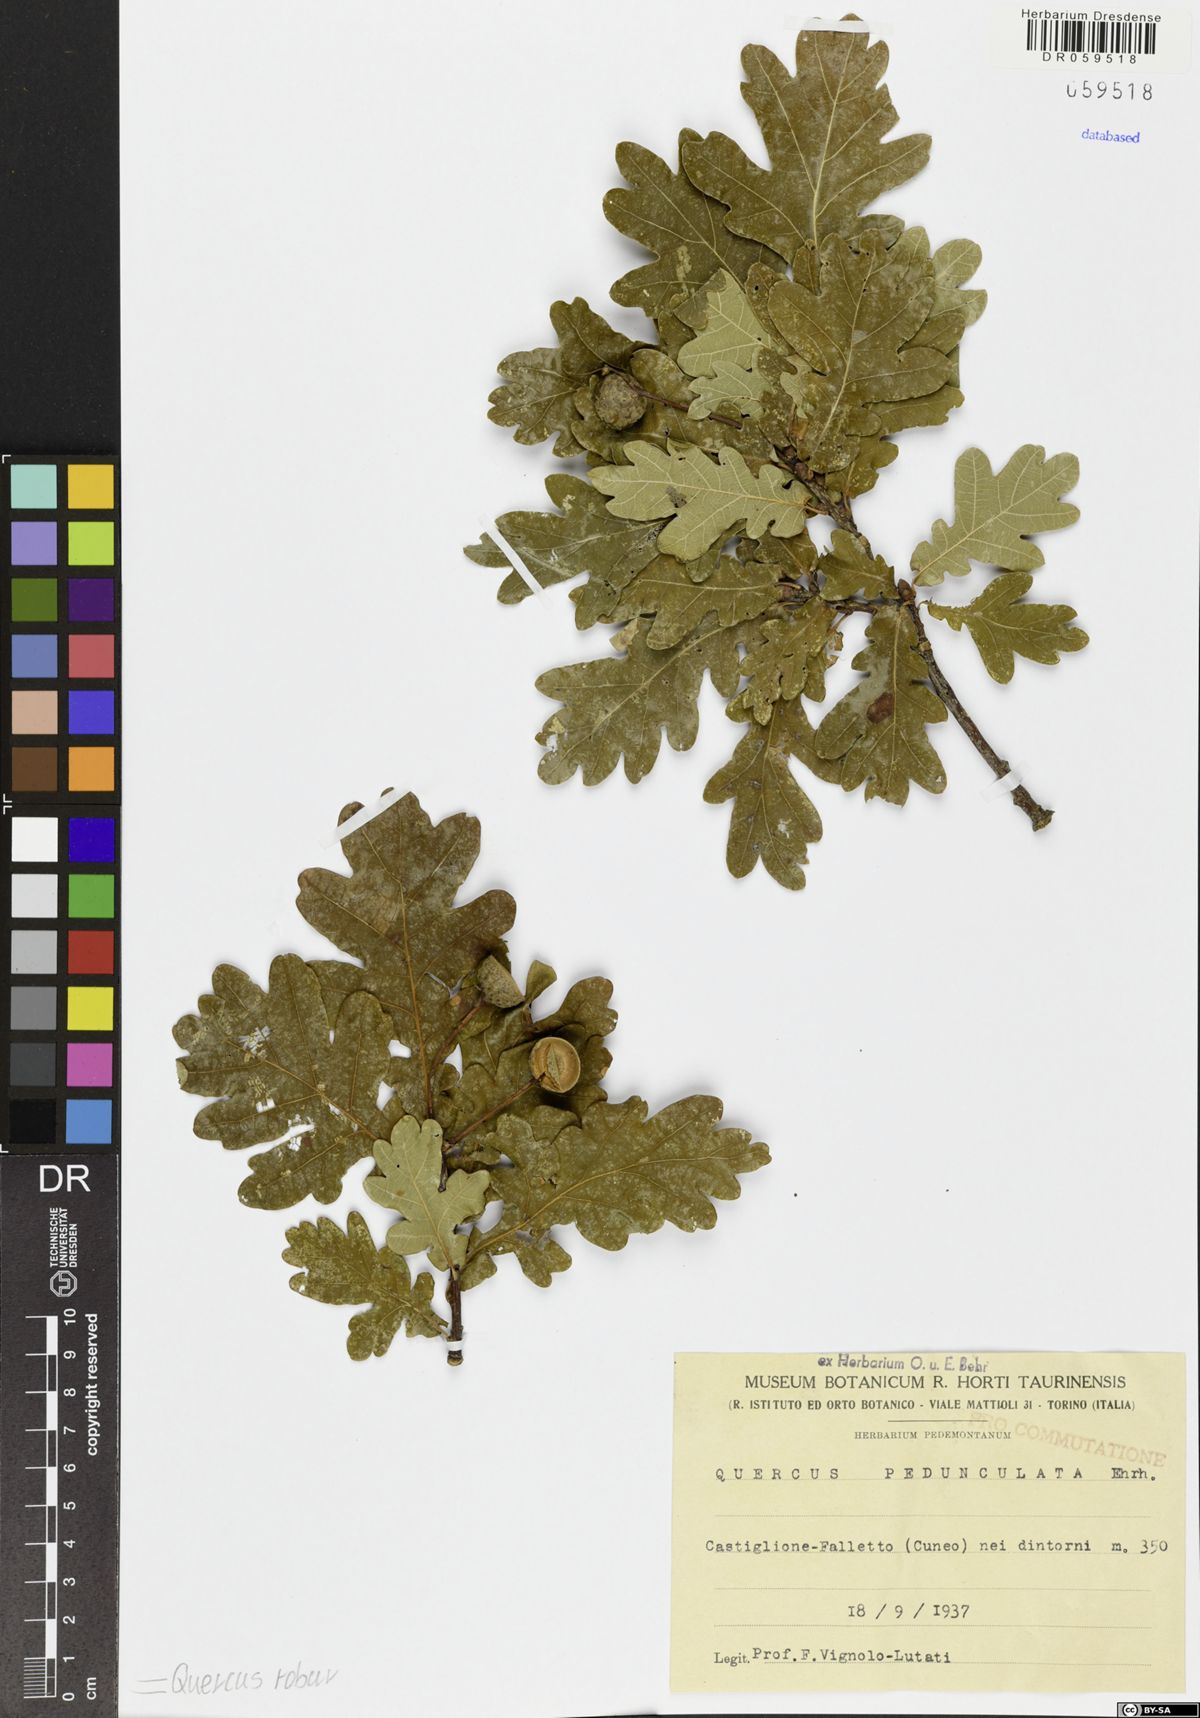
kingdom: Plantae
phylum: Tracheophyta
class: Magnoliopsida
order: Fagales
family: Fagaceae
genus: Quercus
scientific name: Quercus robur
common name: Pedunculate oak
